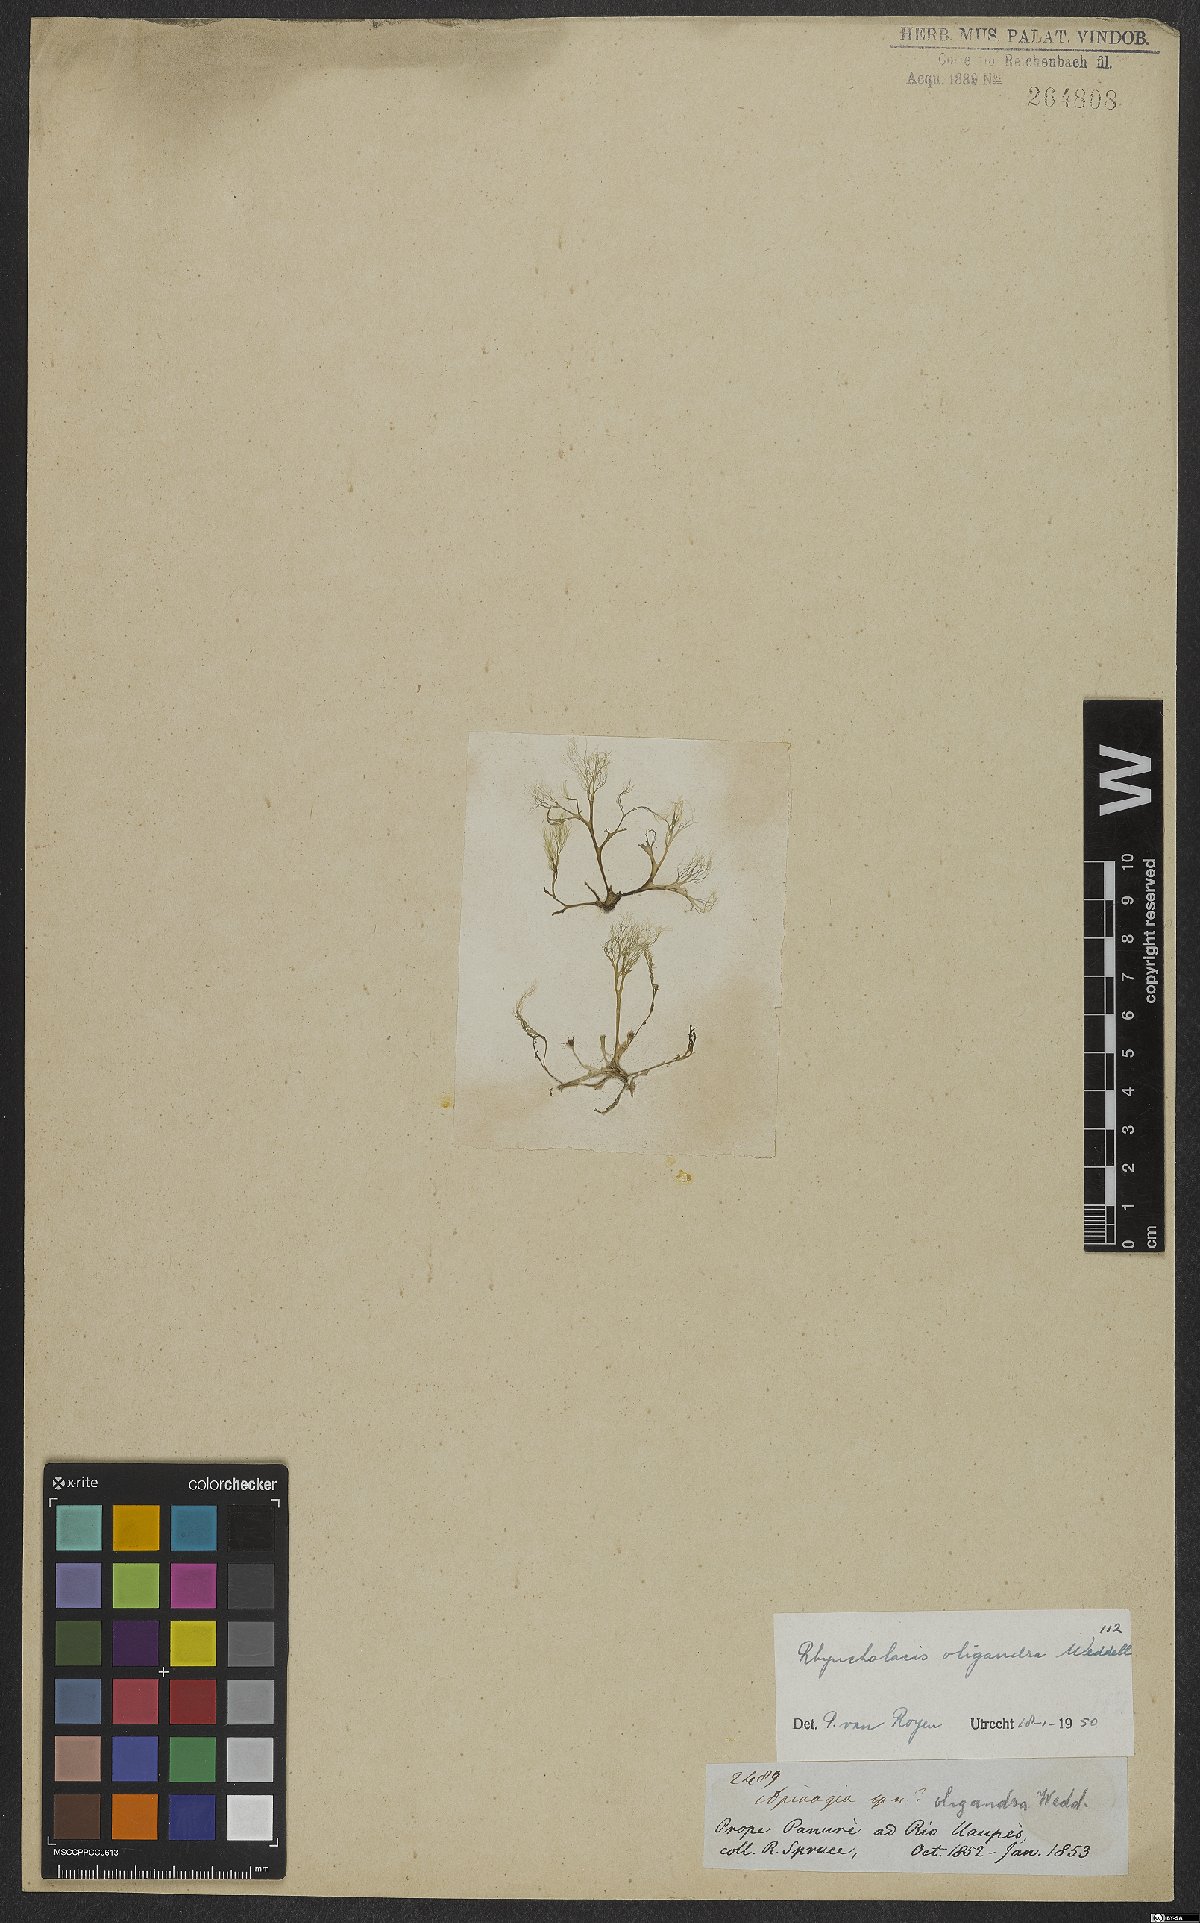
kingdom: Plantae
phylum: Tracheophyta
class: Magnoliopsida
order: Malpighiales
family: Podostemaceae
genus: Rhyncholacis
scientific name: Rhyncholacis oligandra
